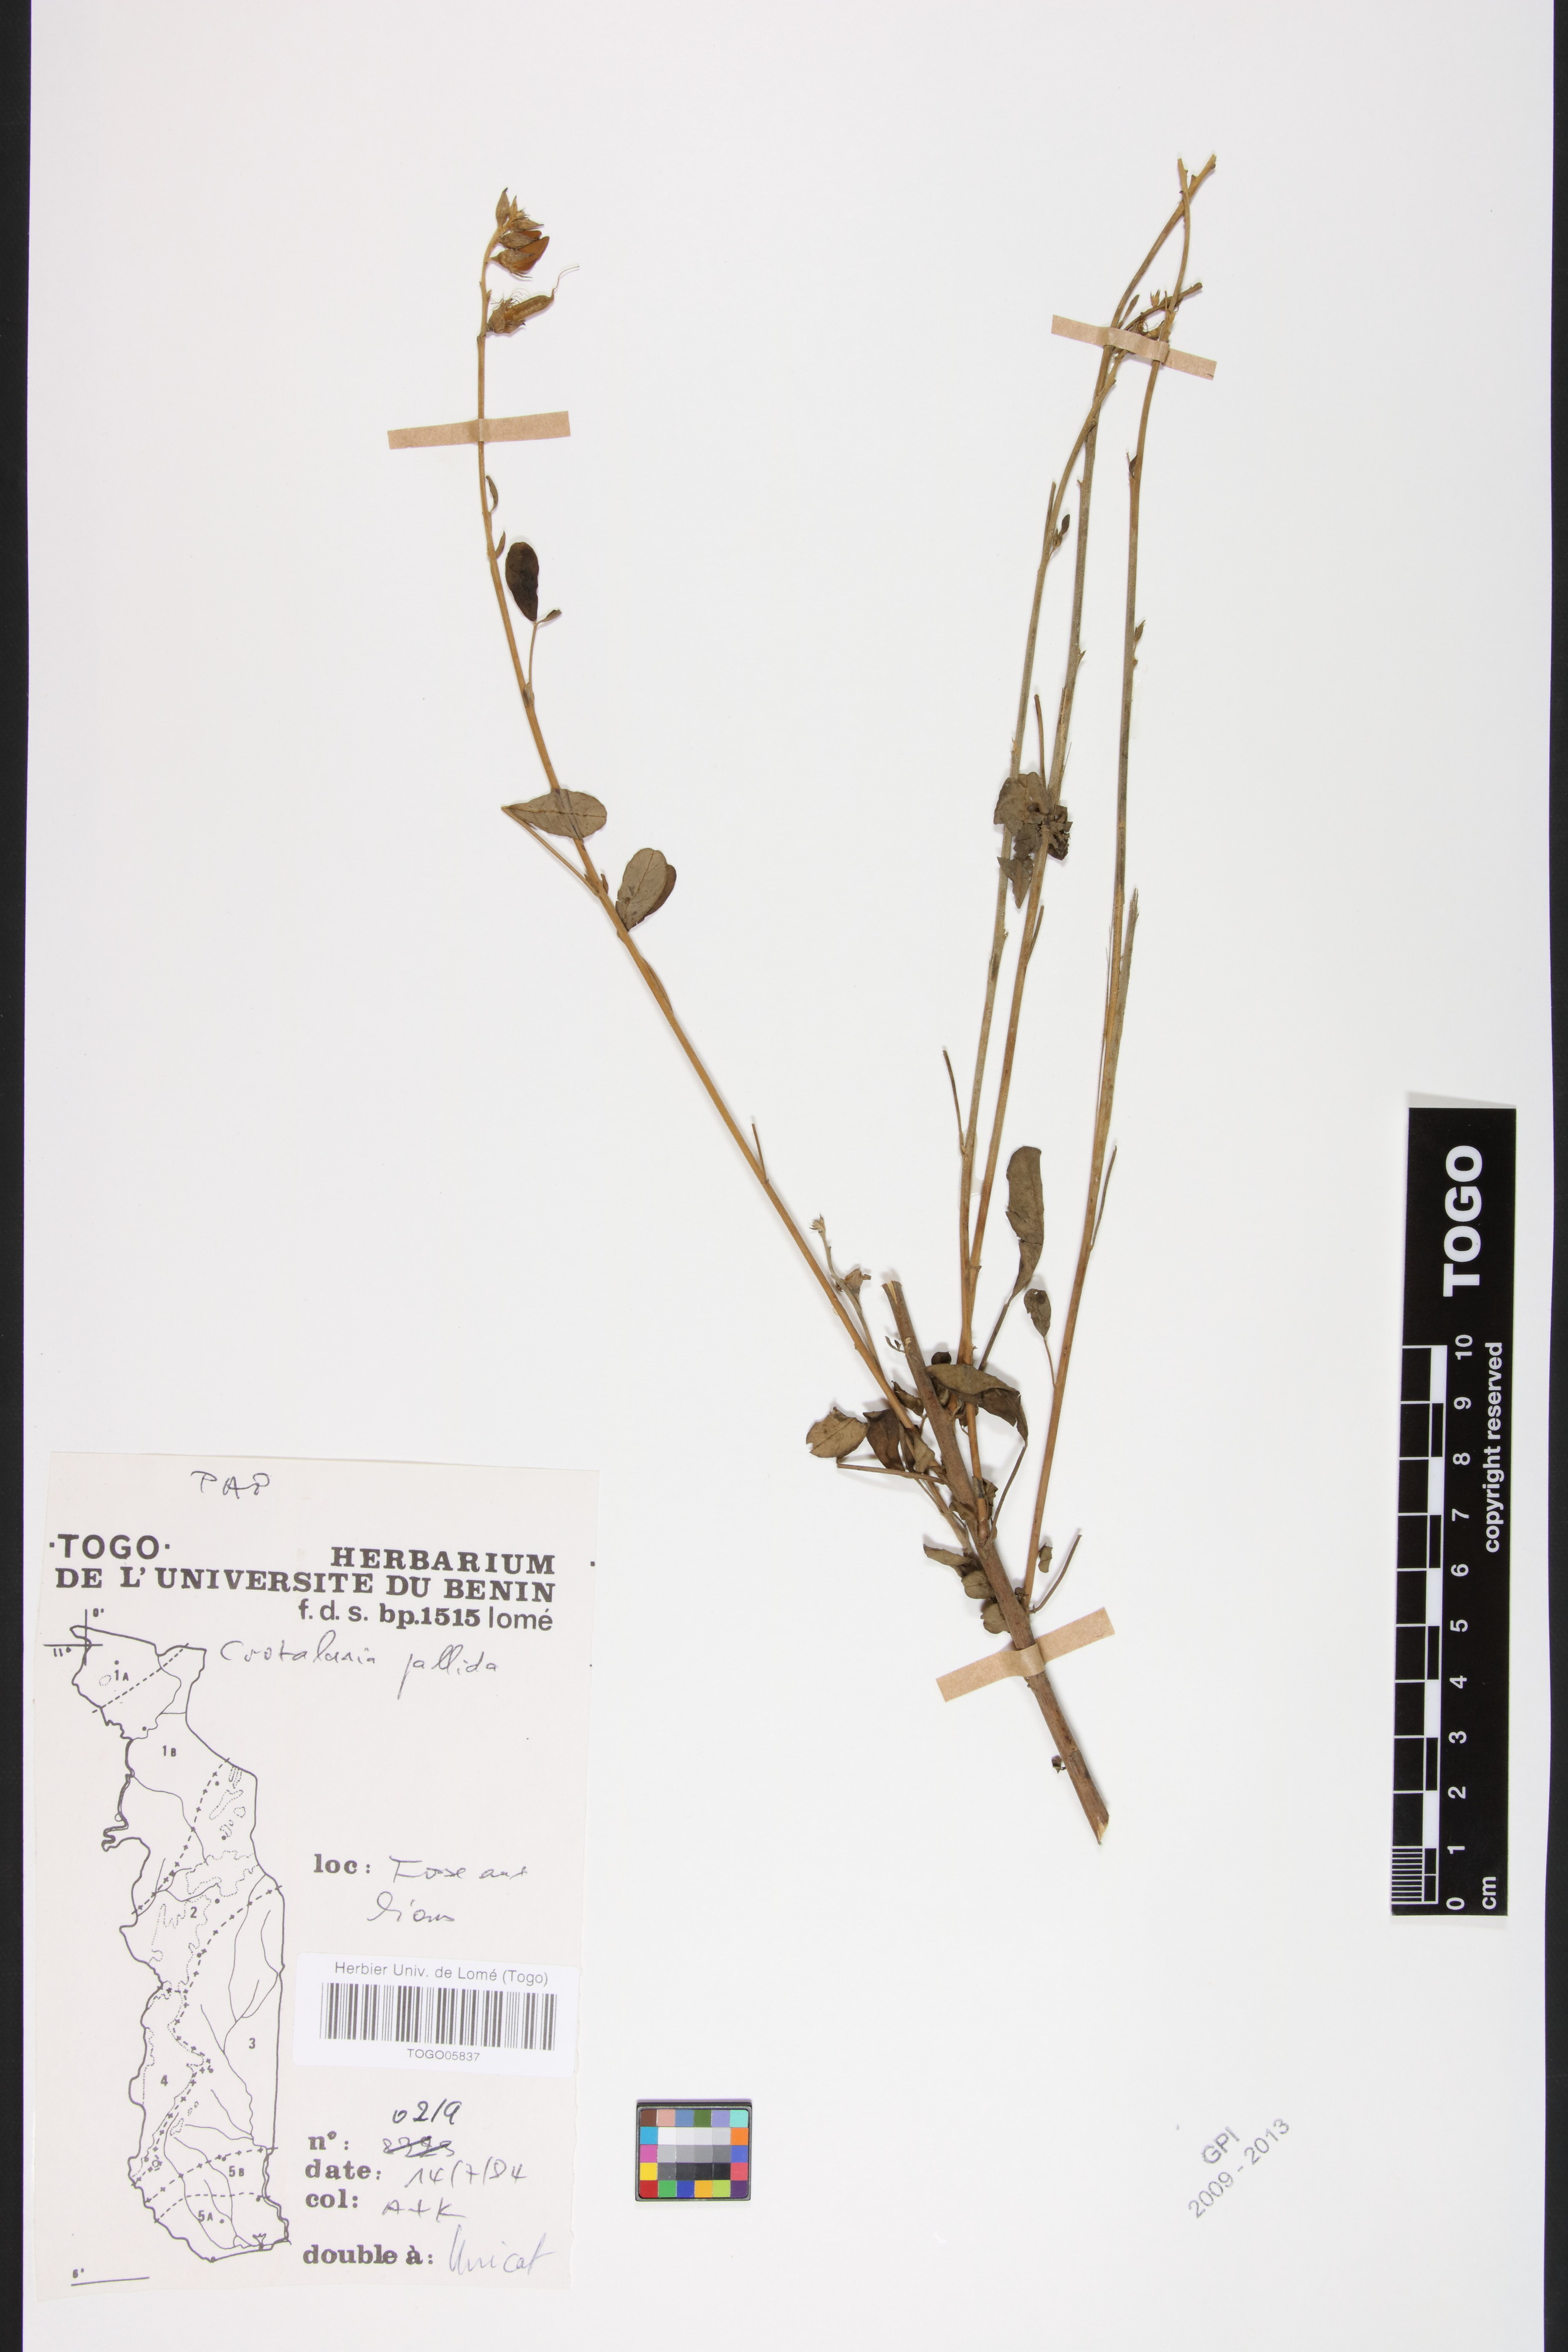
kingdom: Plantae
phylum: Tracheophyta
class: Magnoliopsida
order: Fabales
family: Fabaceae
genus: Crotalaria
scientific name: Crotalaria pallida
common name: Smooth rattlebox
